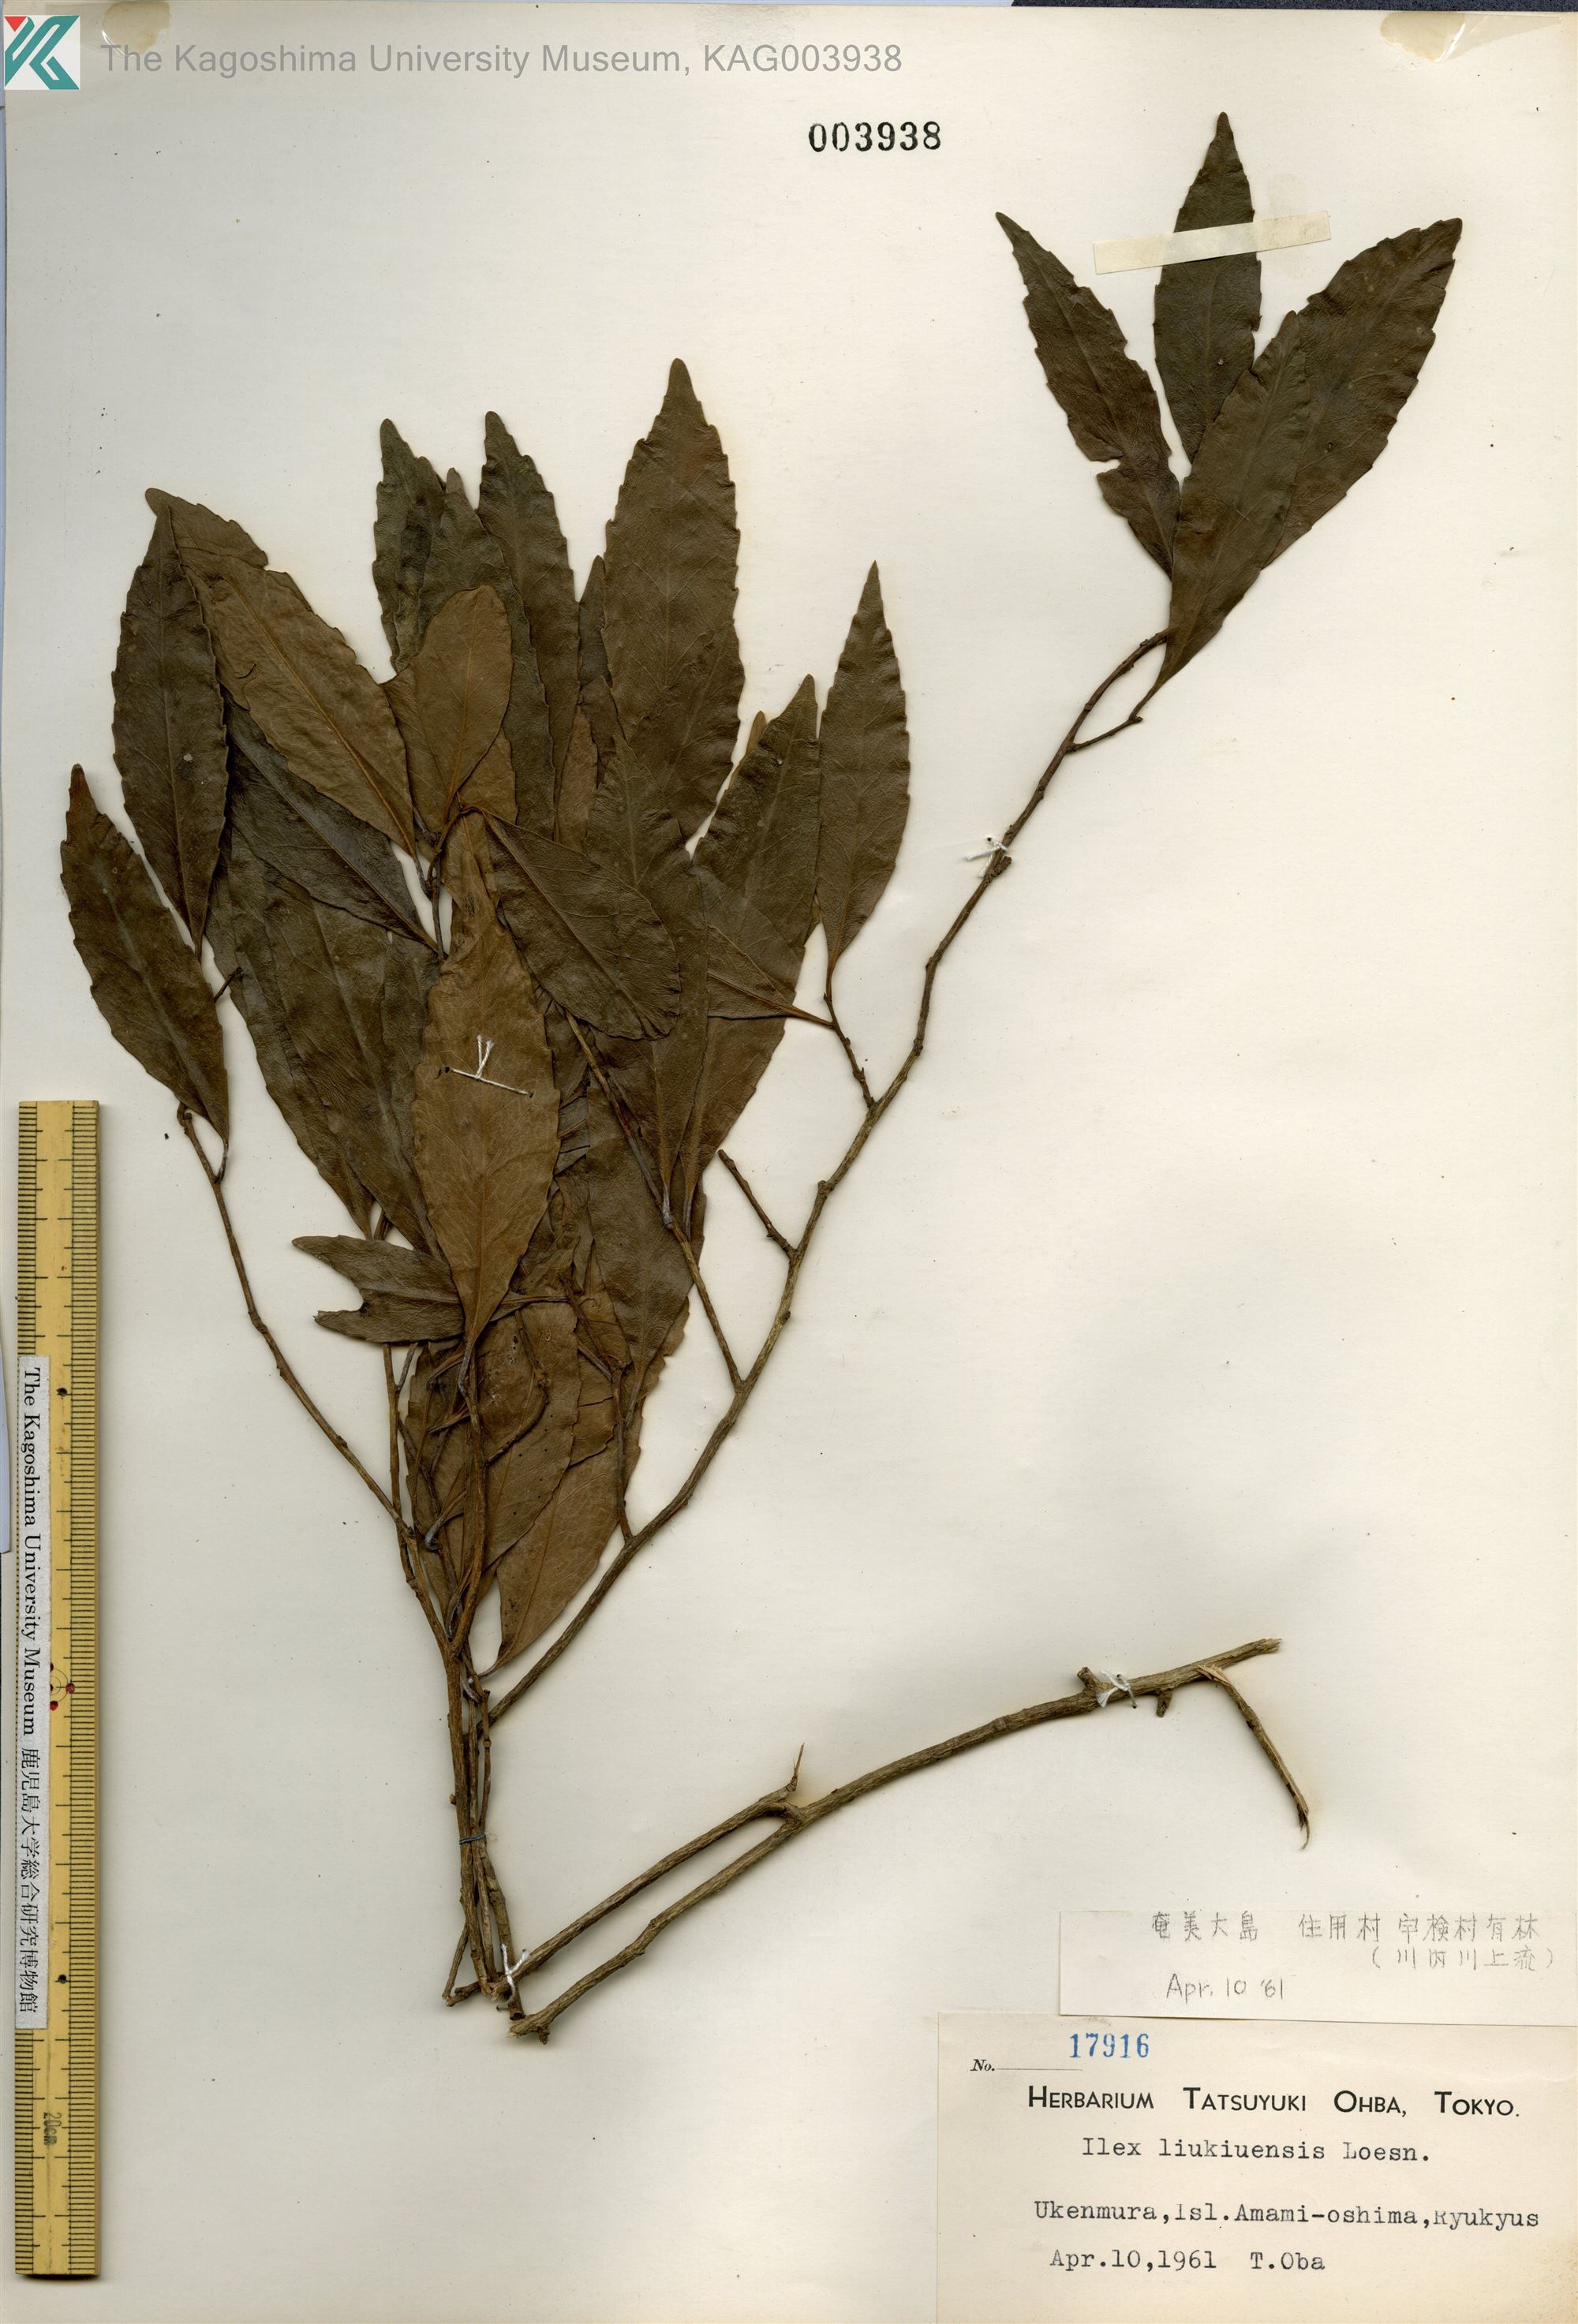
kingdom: Plantae
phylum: Tracheophyta
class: Magnoliopsida
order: Aquifoliales
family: Aquifoliaceae
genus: Ilex
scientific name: Ilex liukiuensis
